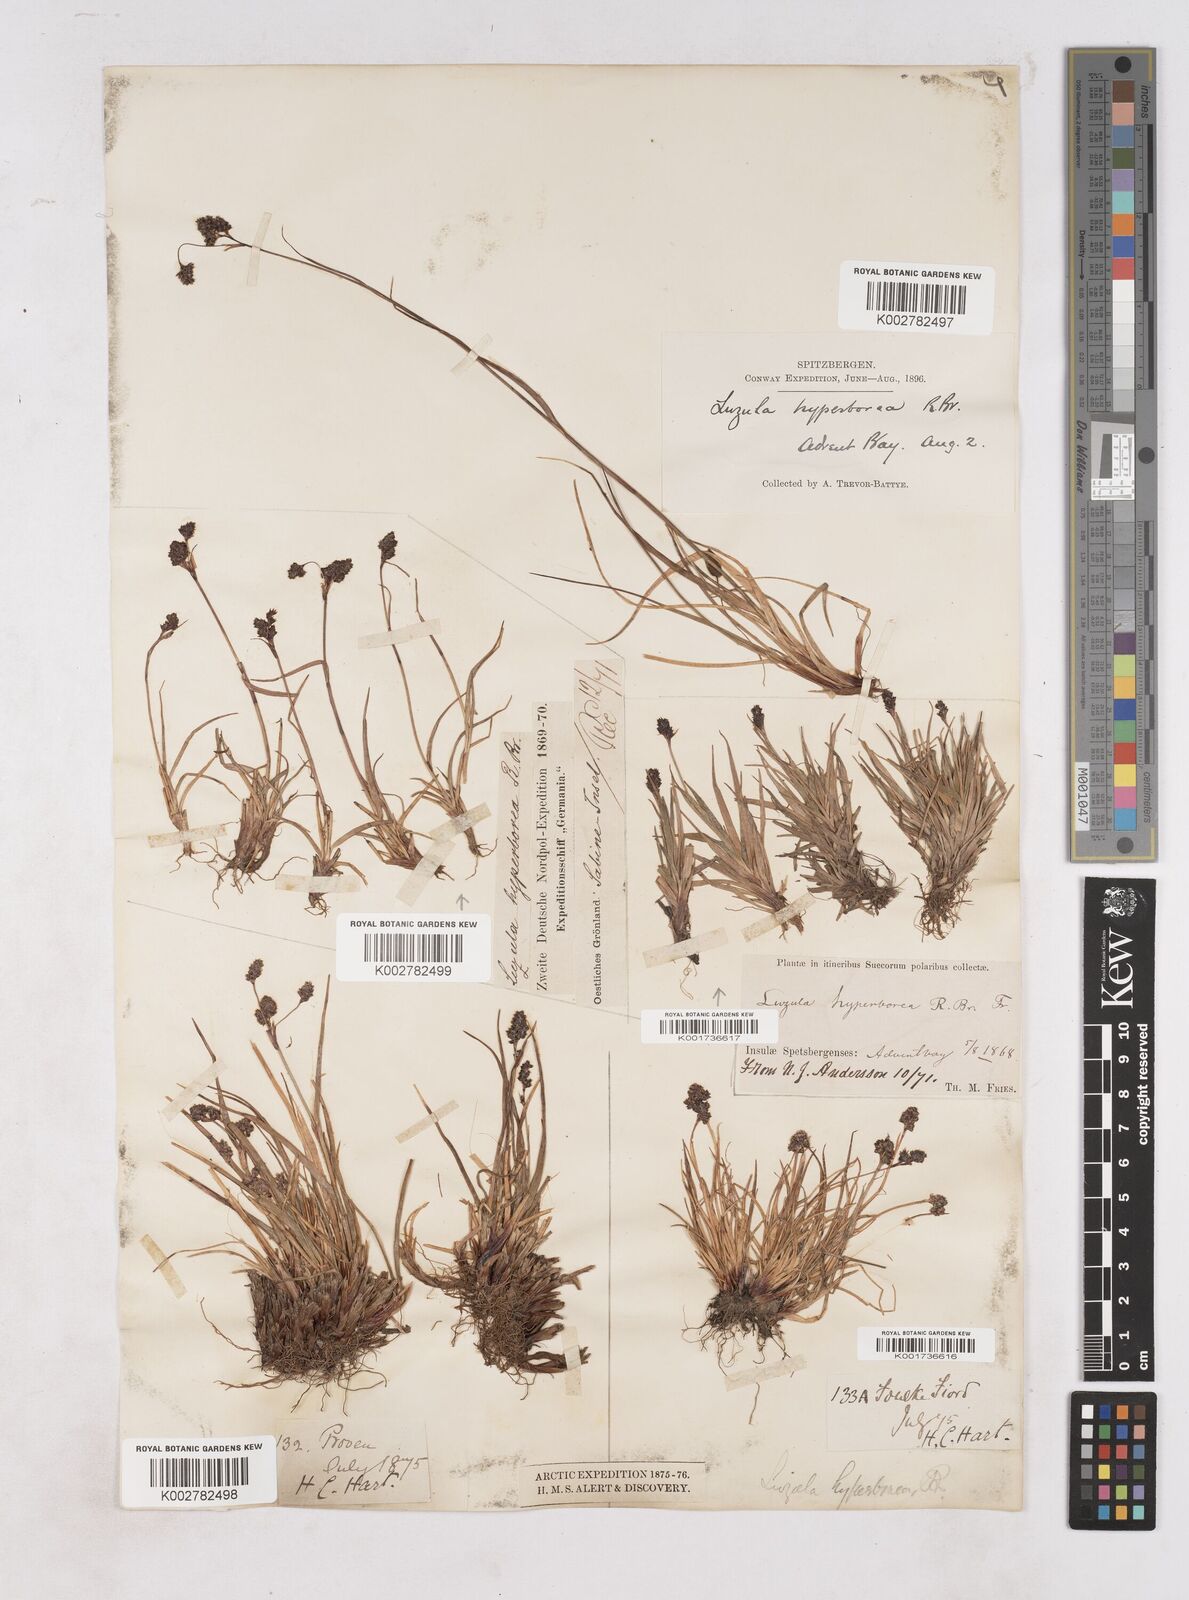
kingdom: Plantae
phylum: Tracheophyta
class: Liliopsida
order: Poales
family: Juncaceae
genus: Luzula
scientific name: Luzula arcuata
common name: Curved wood-rush
